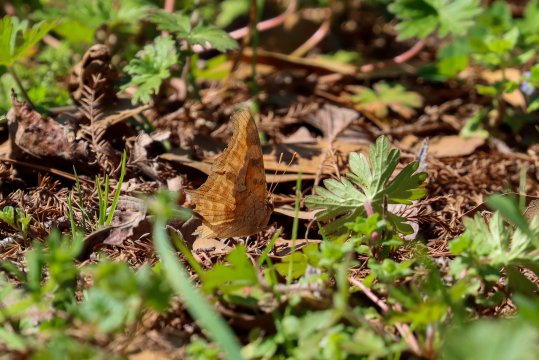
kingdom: Animalia
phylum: Arthropoda
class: Insecta
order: Lepidoptera
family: Nymphalidae
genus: Polygonia
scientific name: Polygonia interrogationis
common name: Question Mark
